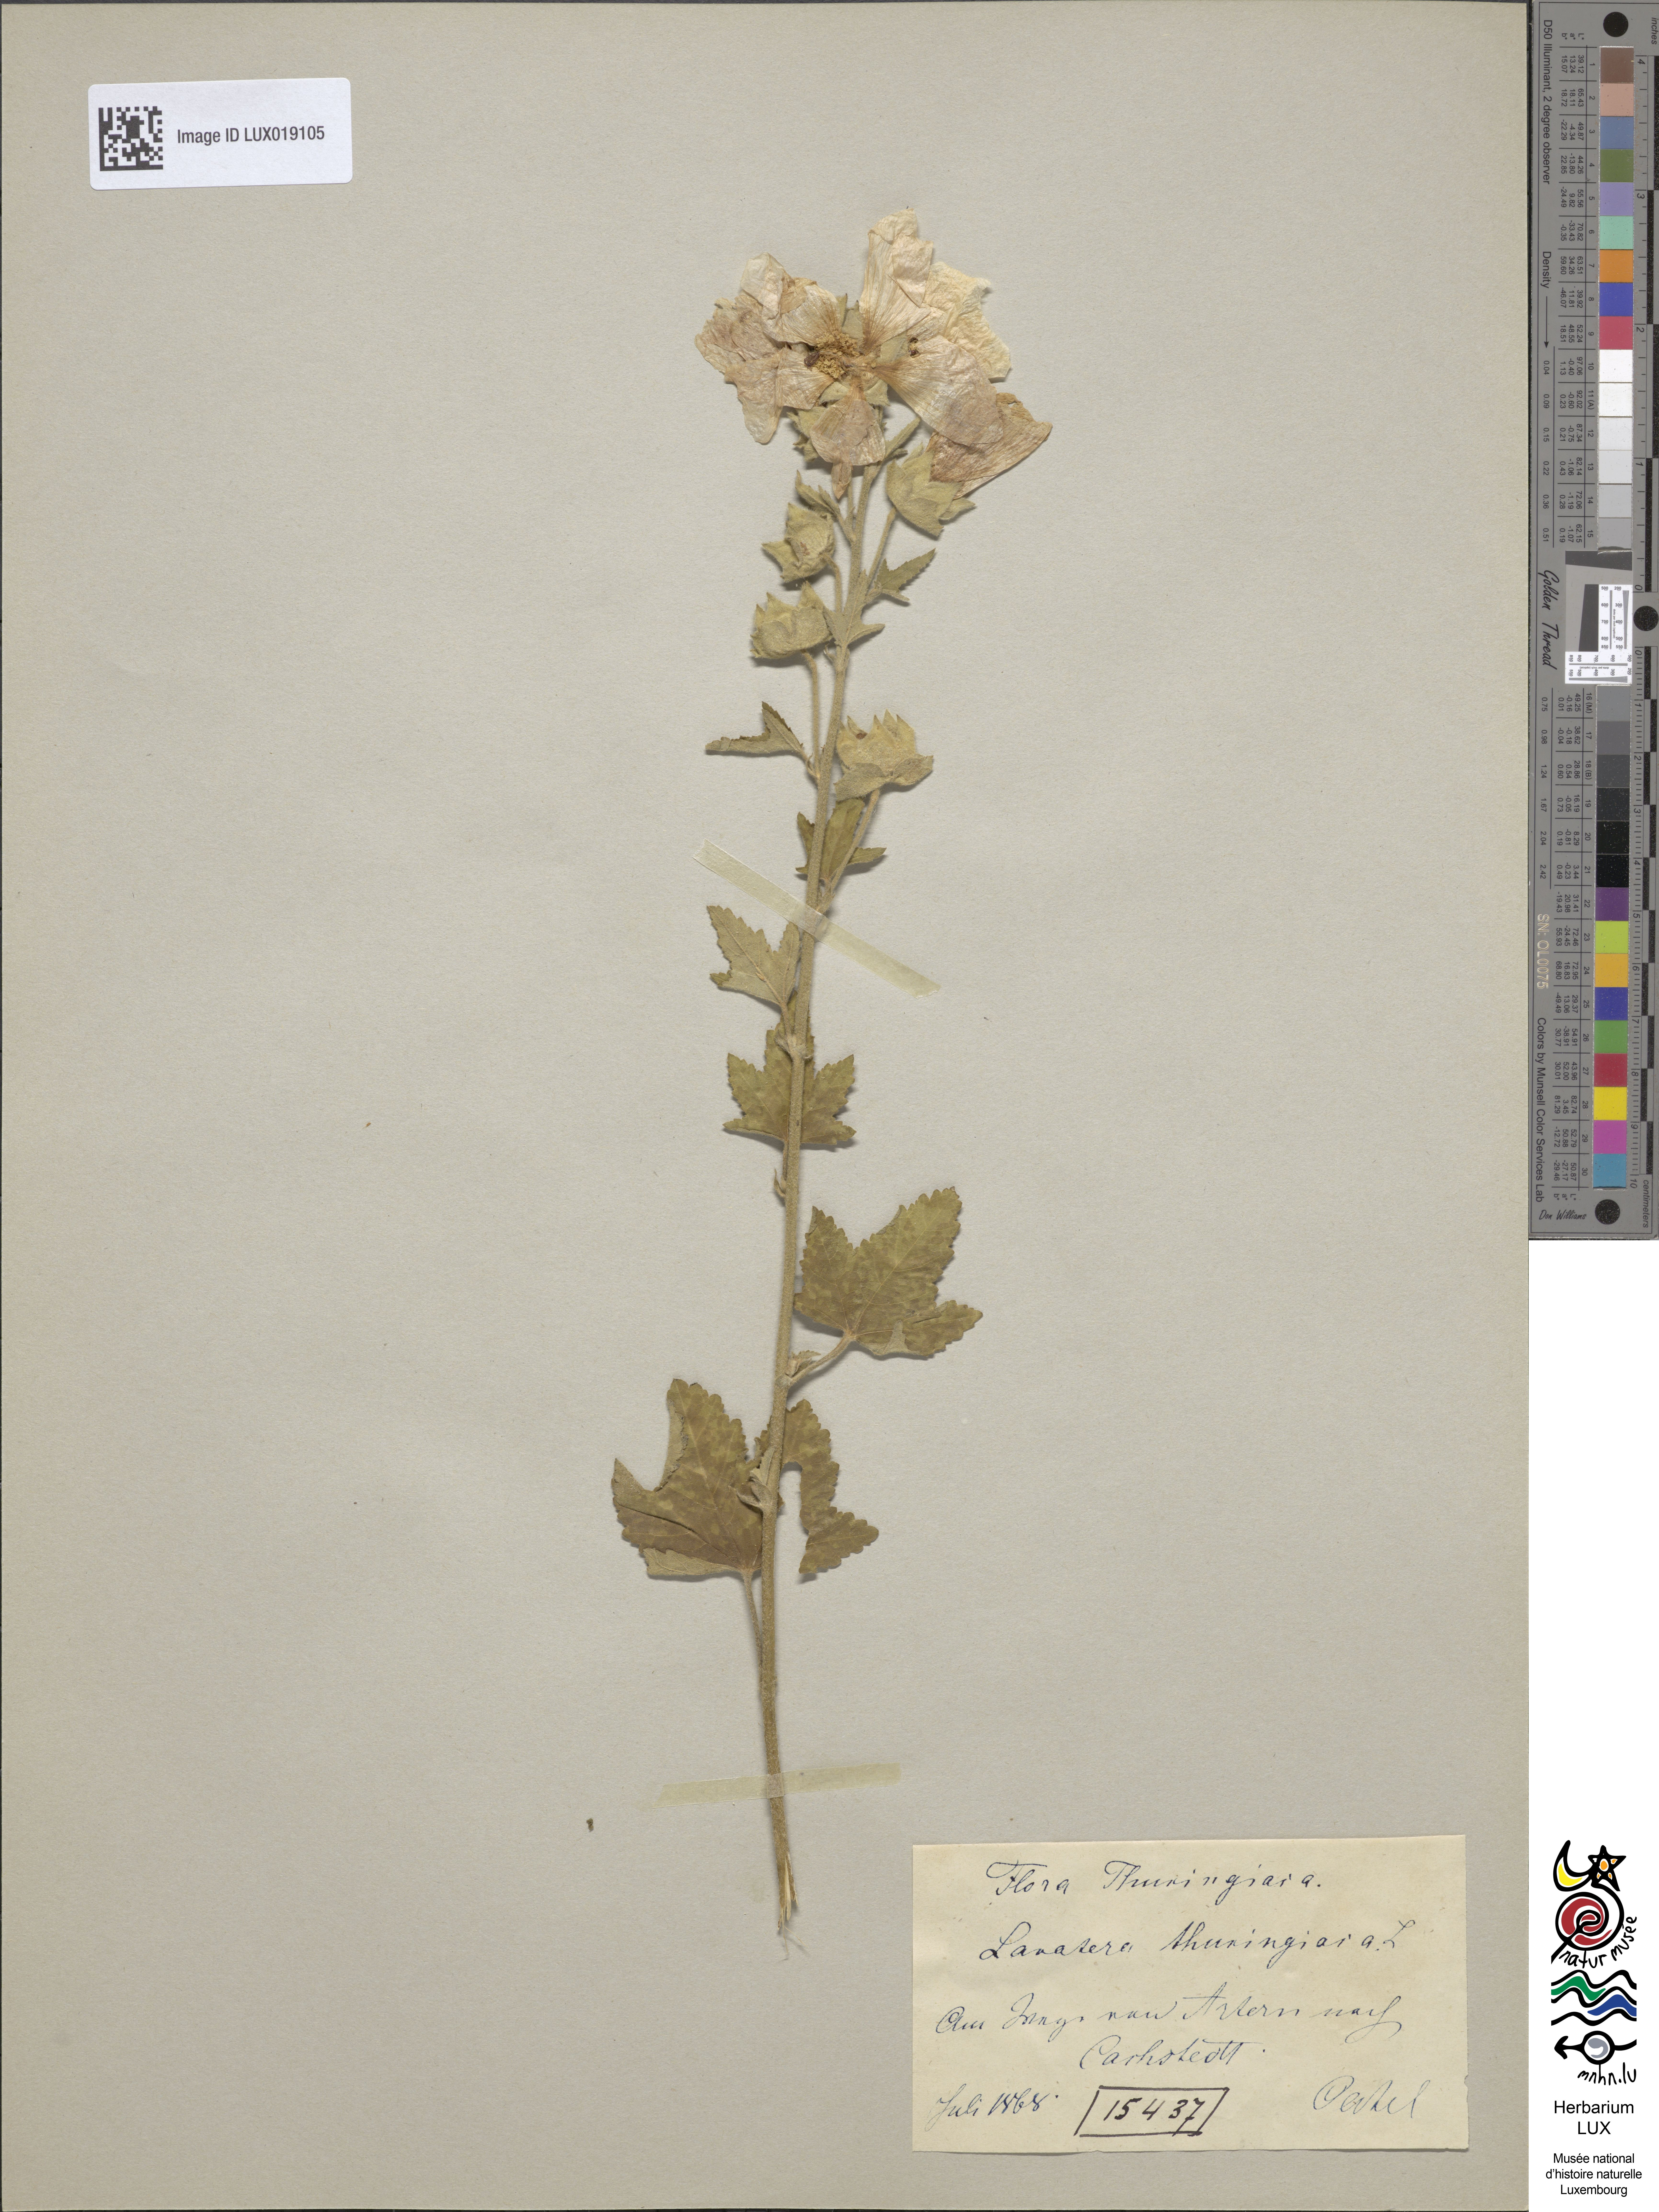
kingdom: Plantae
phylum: Tracheophyta
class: Magnoliopsida
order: Malvales
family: Malvaceae
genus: Malva
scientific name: Malva thuringiaca
